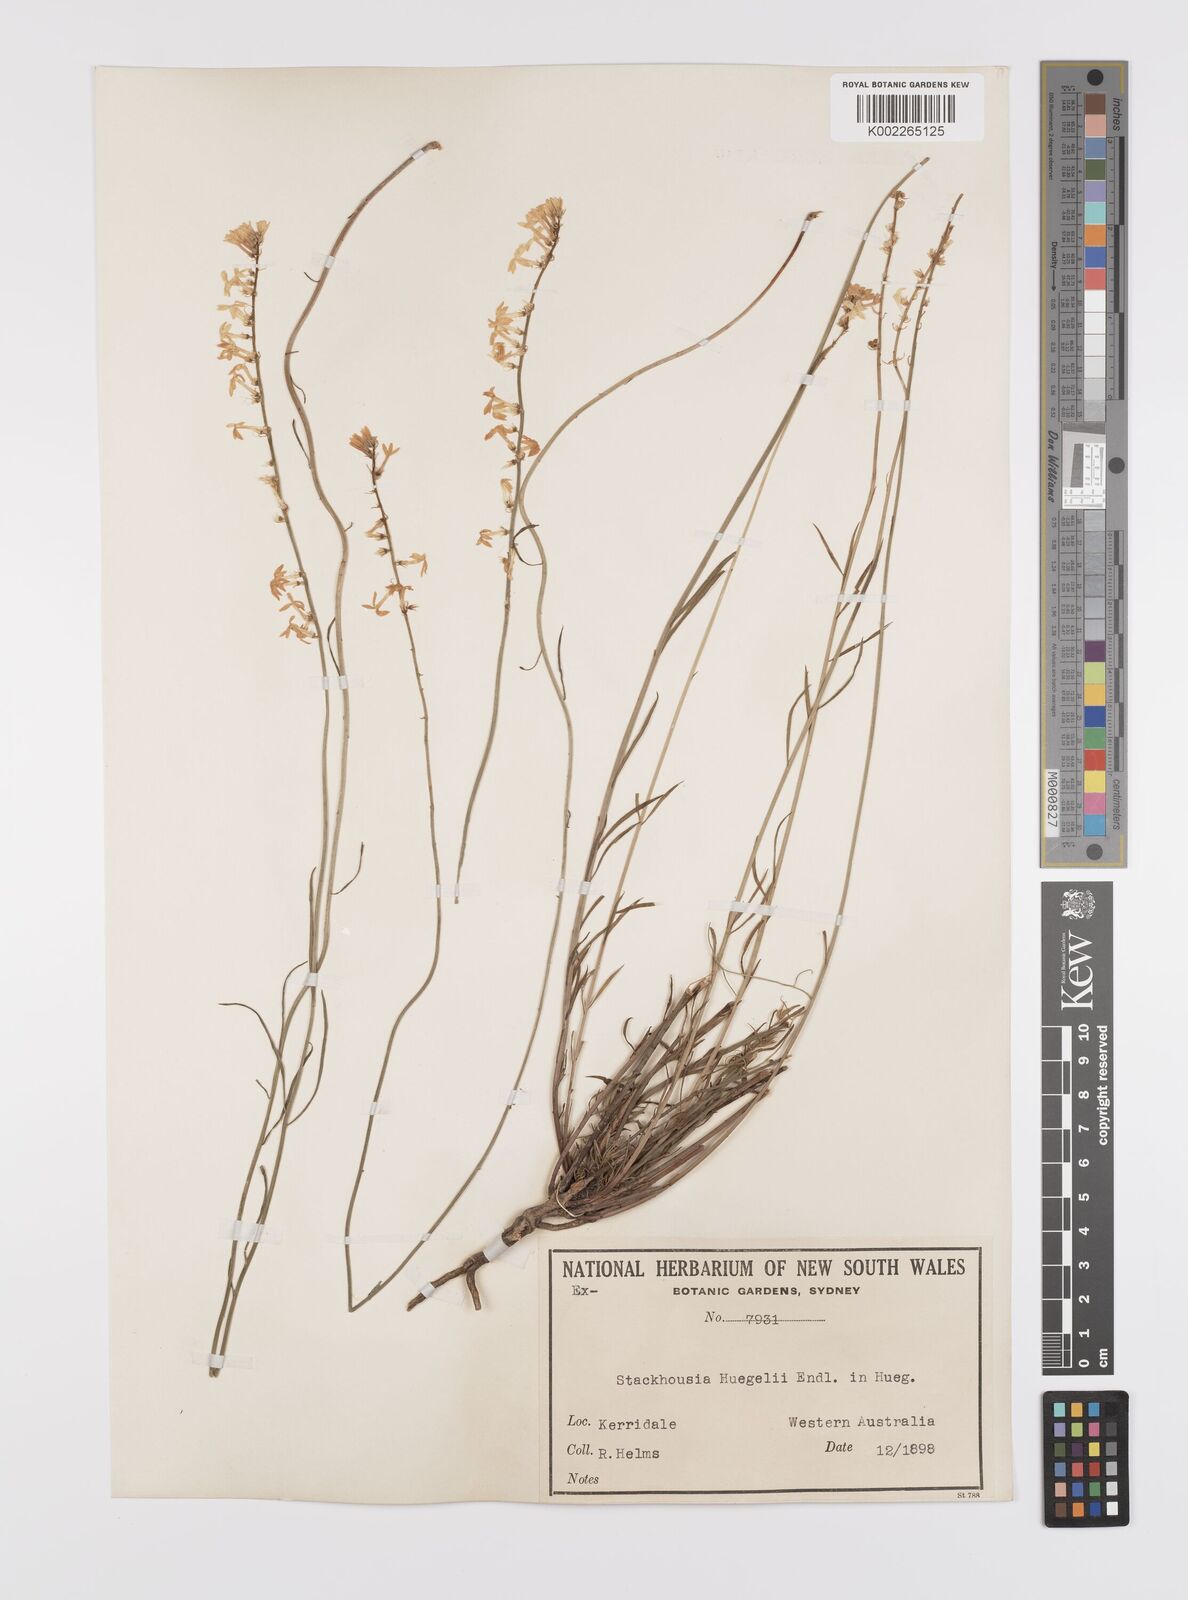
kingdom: Plantae
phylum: Tracheophyta
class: Magnoliopsida
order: Celastrales
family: Celastraceae
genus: Stackhousia
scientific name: Stackhousia monogyna
